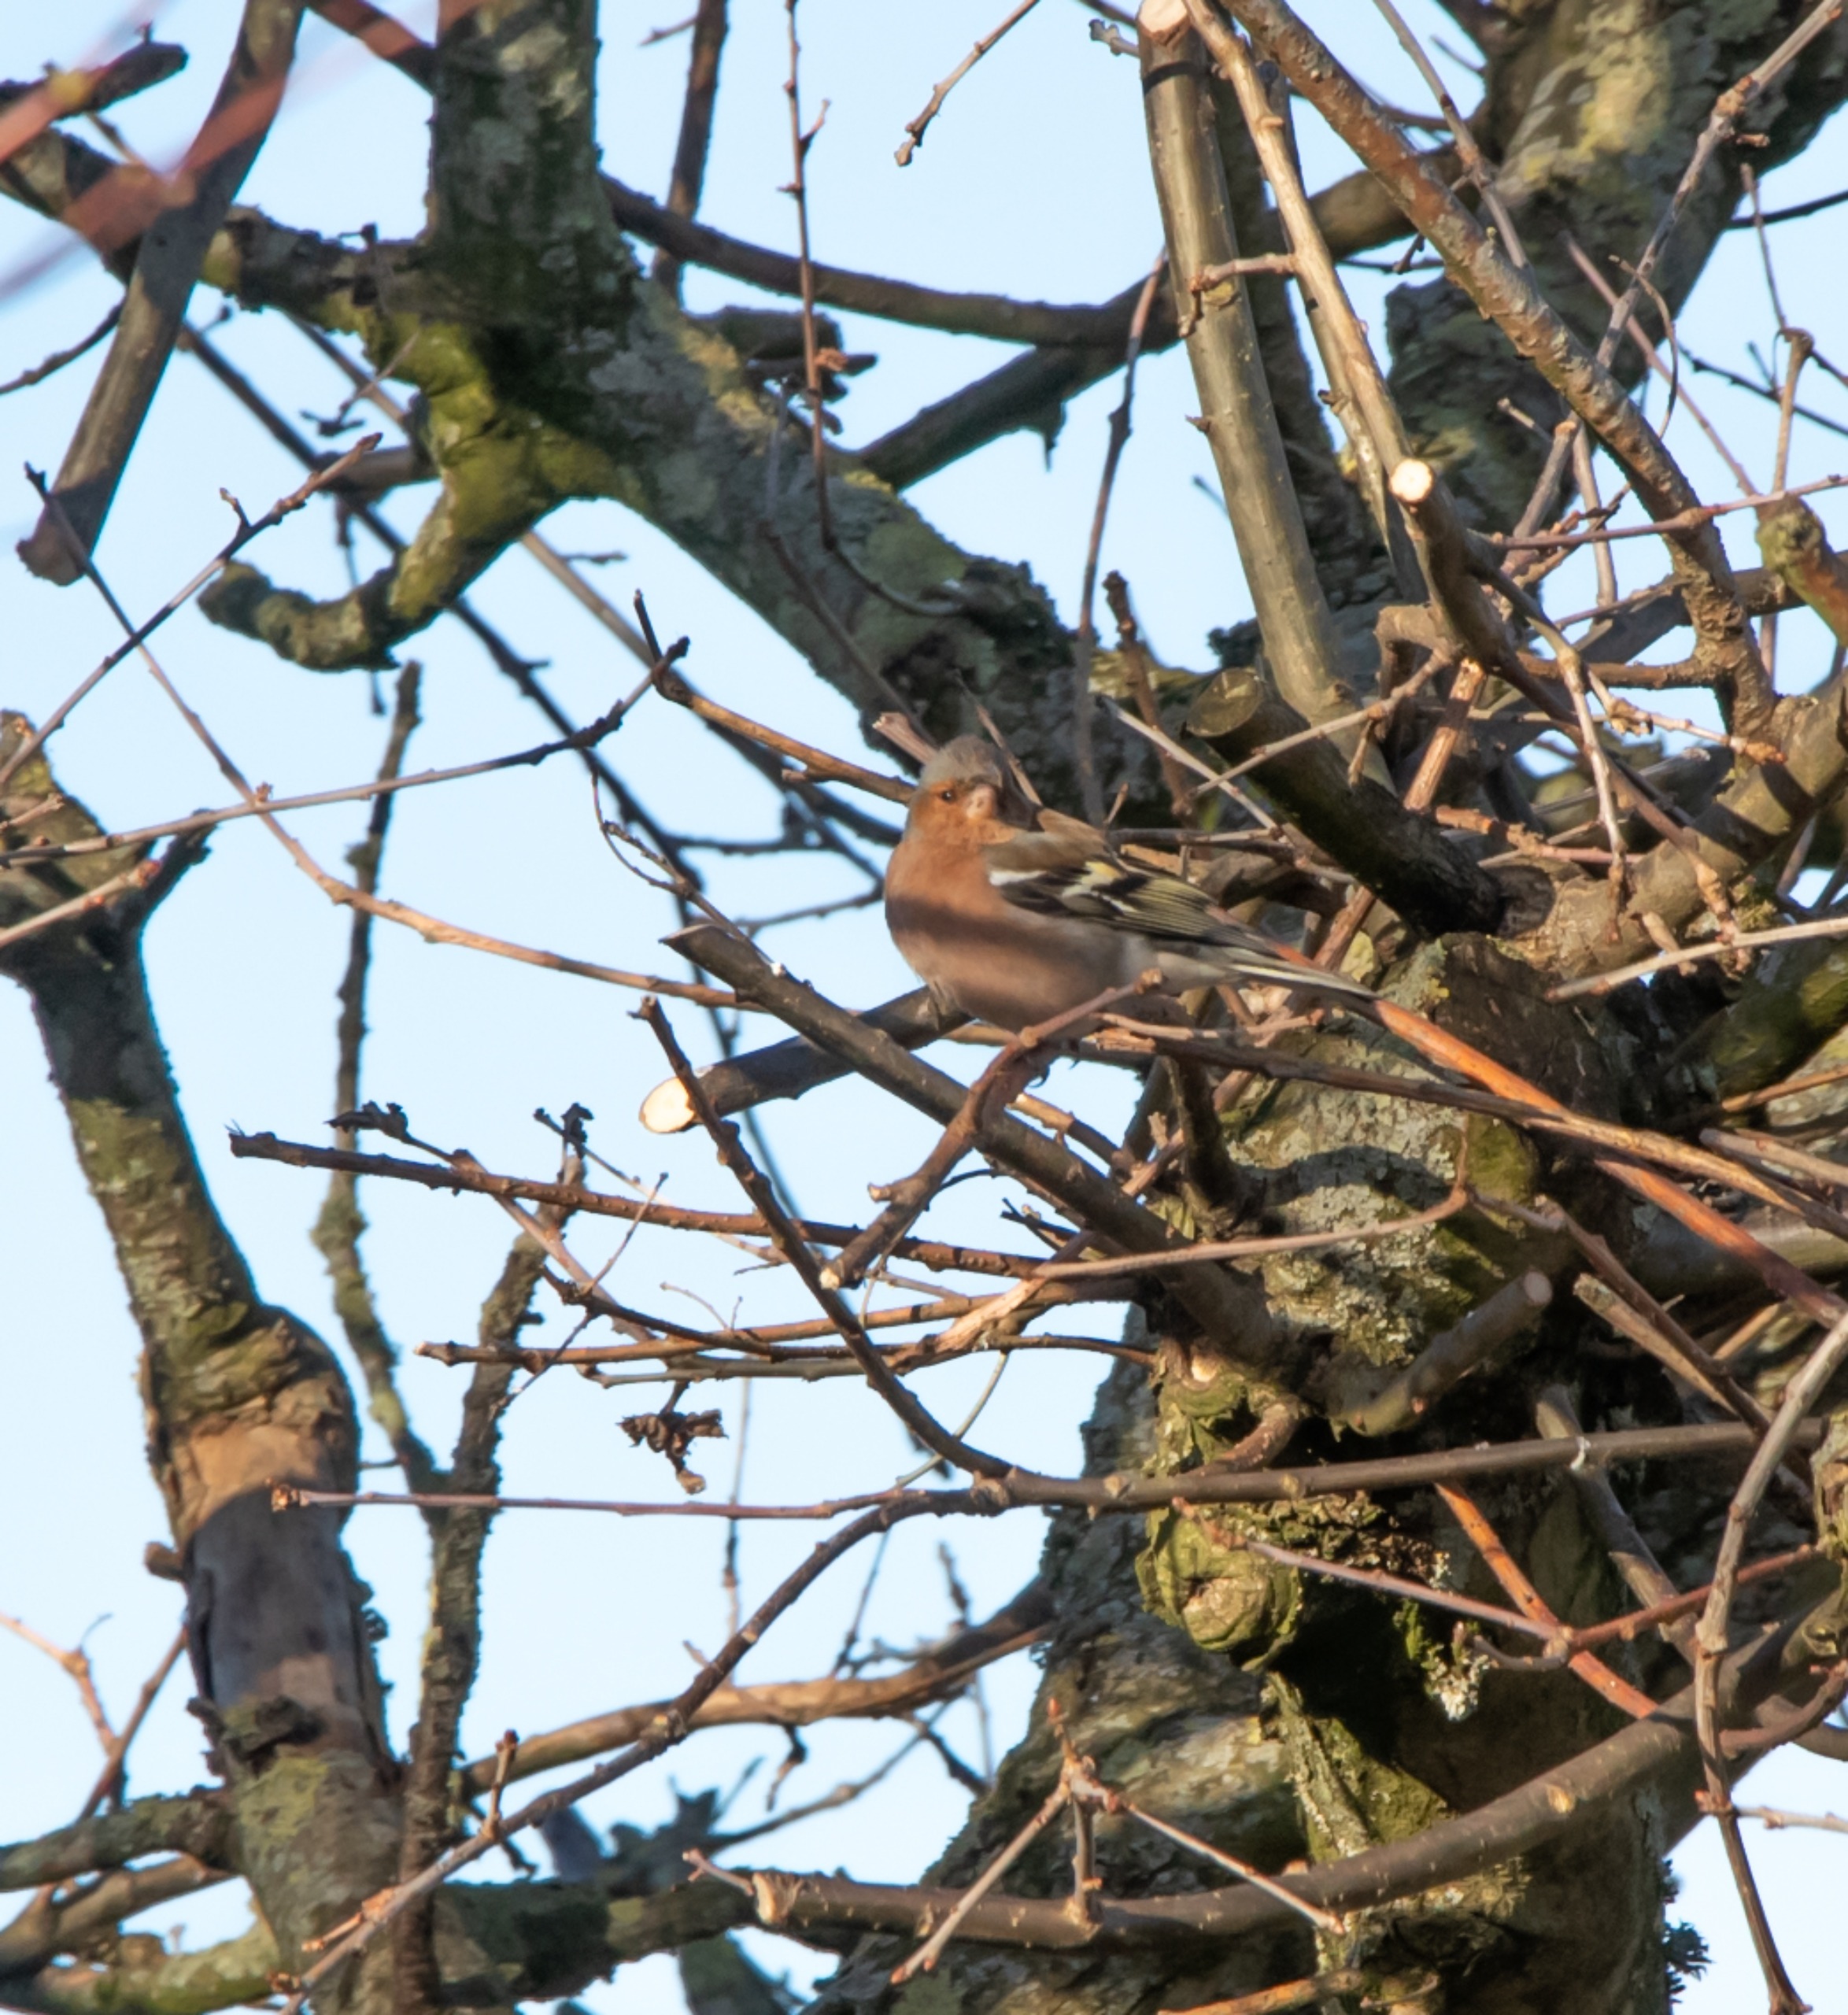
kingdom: Animalia
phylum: Chordata
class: Aves
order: Passeriformes
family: Fringillidae
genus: Fringilla
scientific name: Fringilla coelebs
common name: Bogfinke
